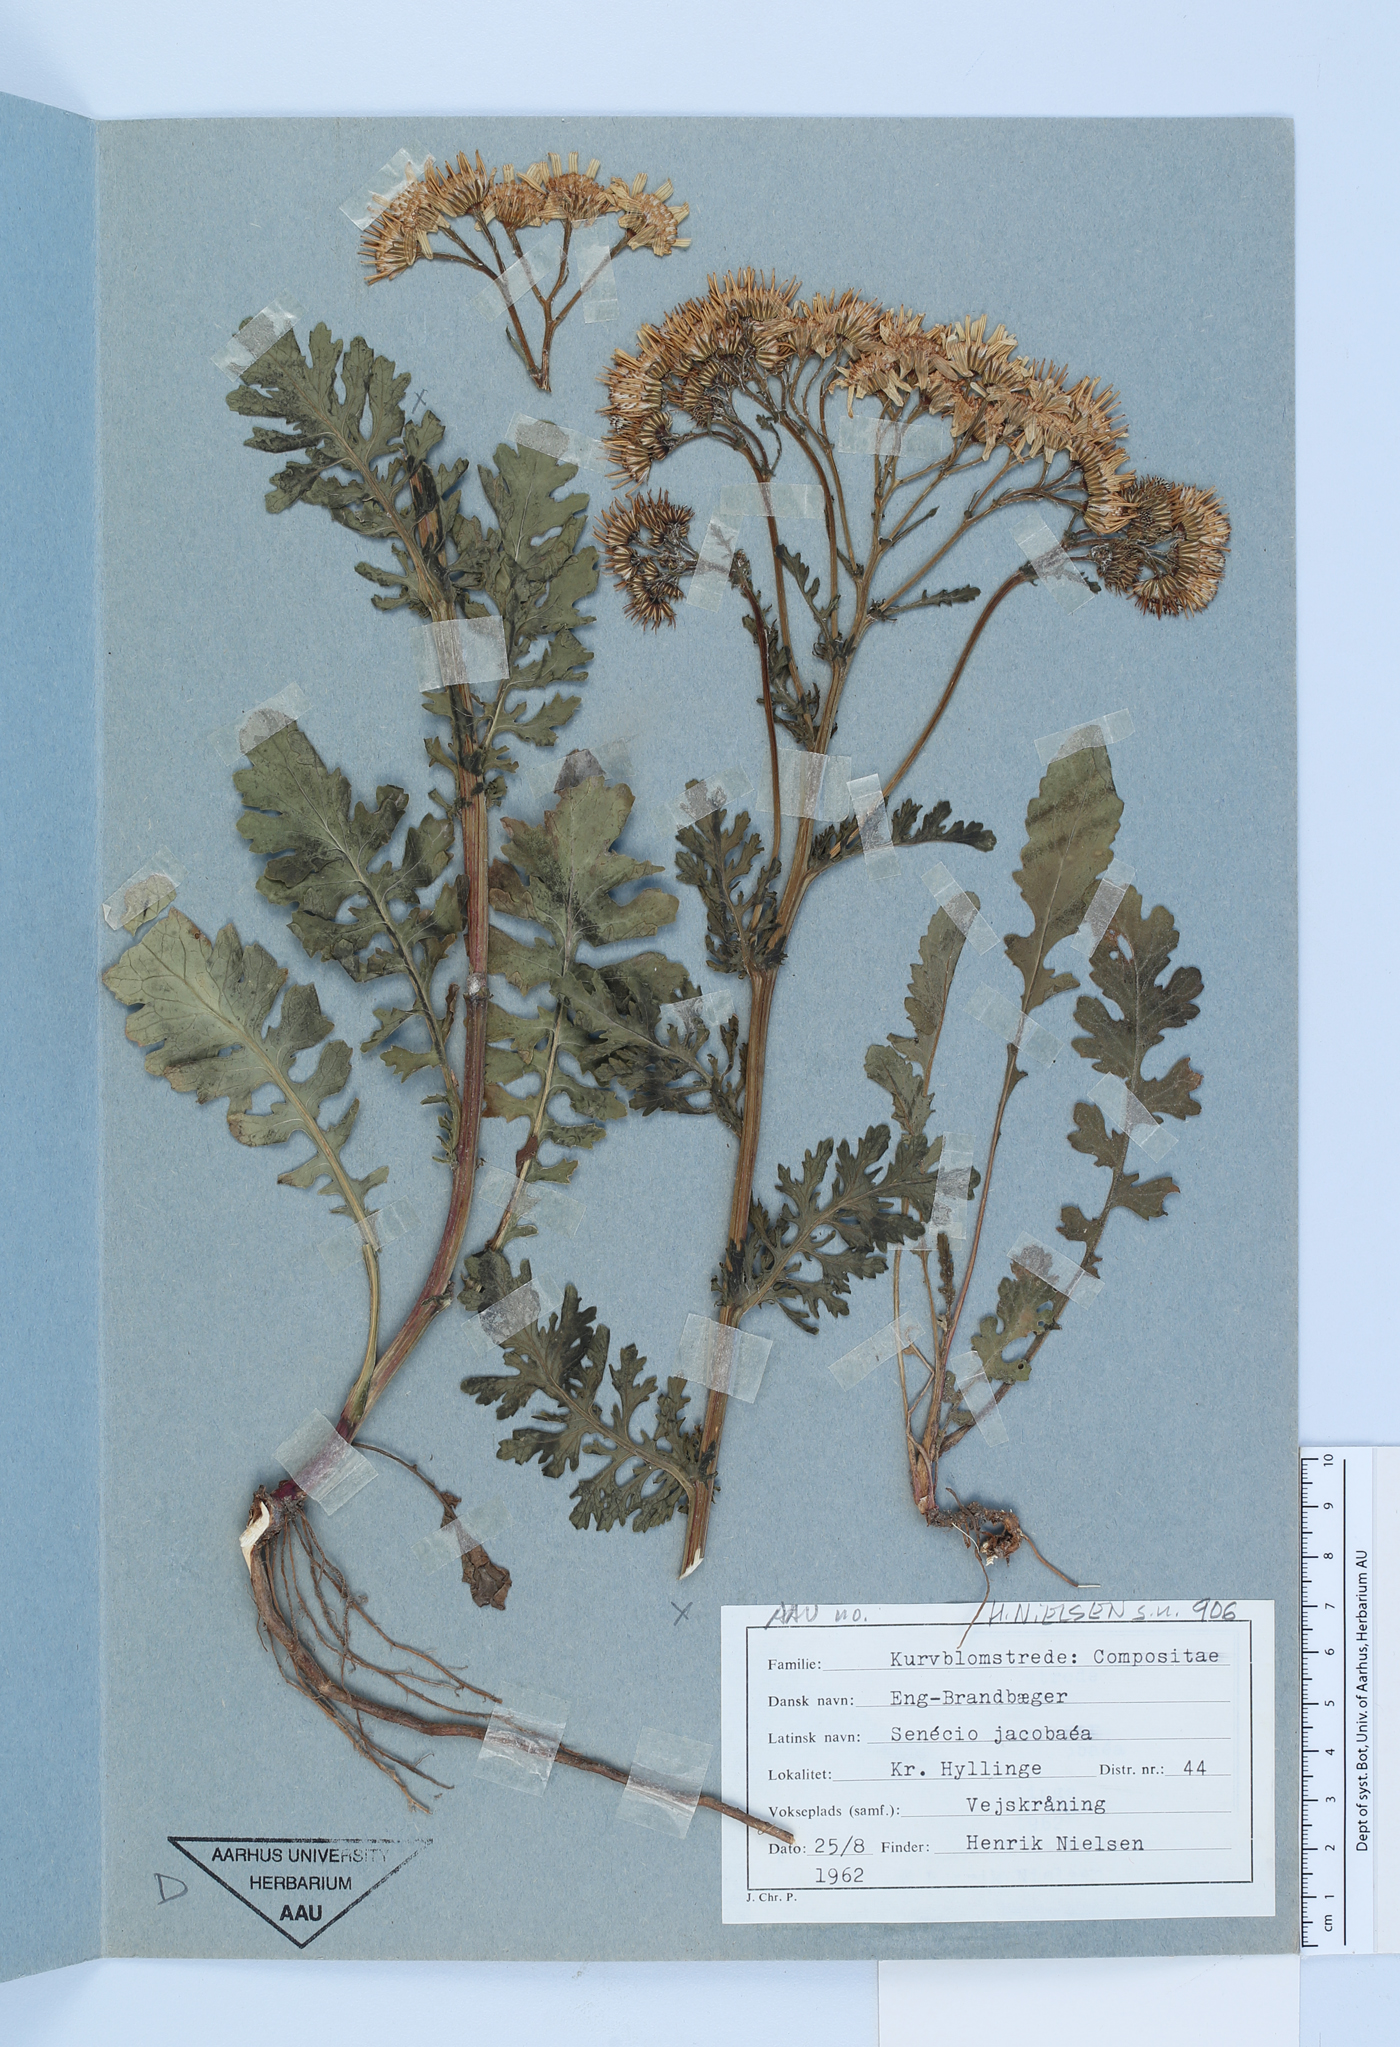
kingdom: Plantae
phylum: Tracheophyta
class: Magnoliopsida
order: Asterales
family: Asteraceae
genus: Jacobaea
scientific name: Jacobaea vulgaris
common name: Stinking willie
